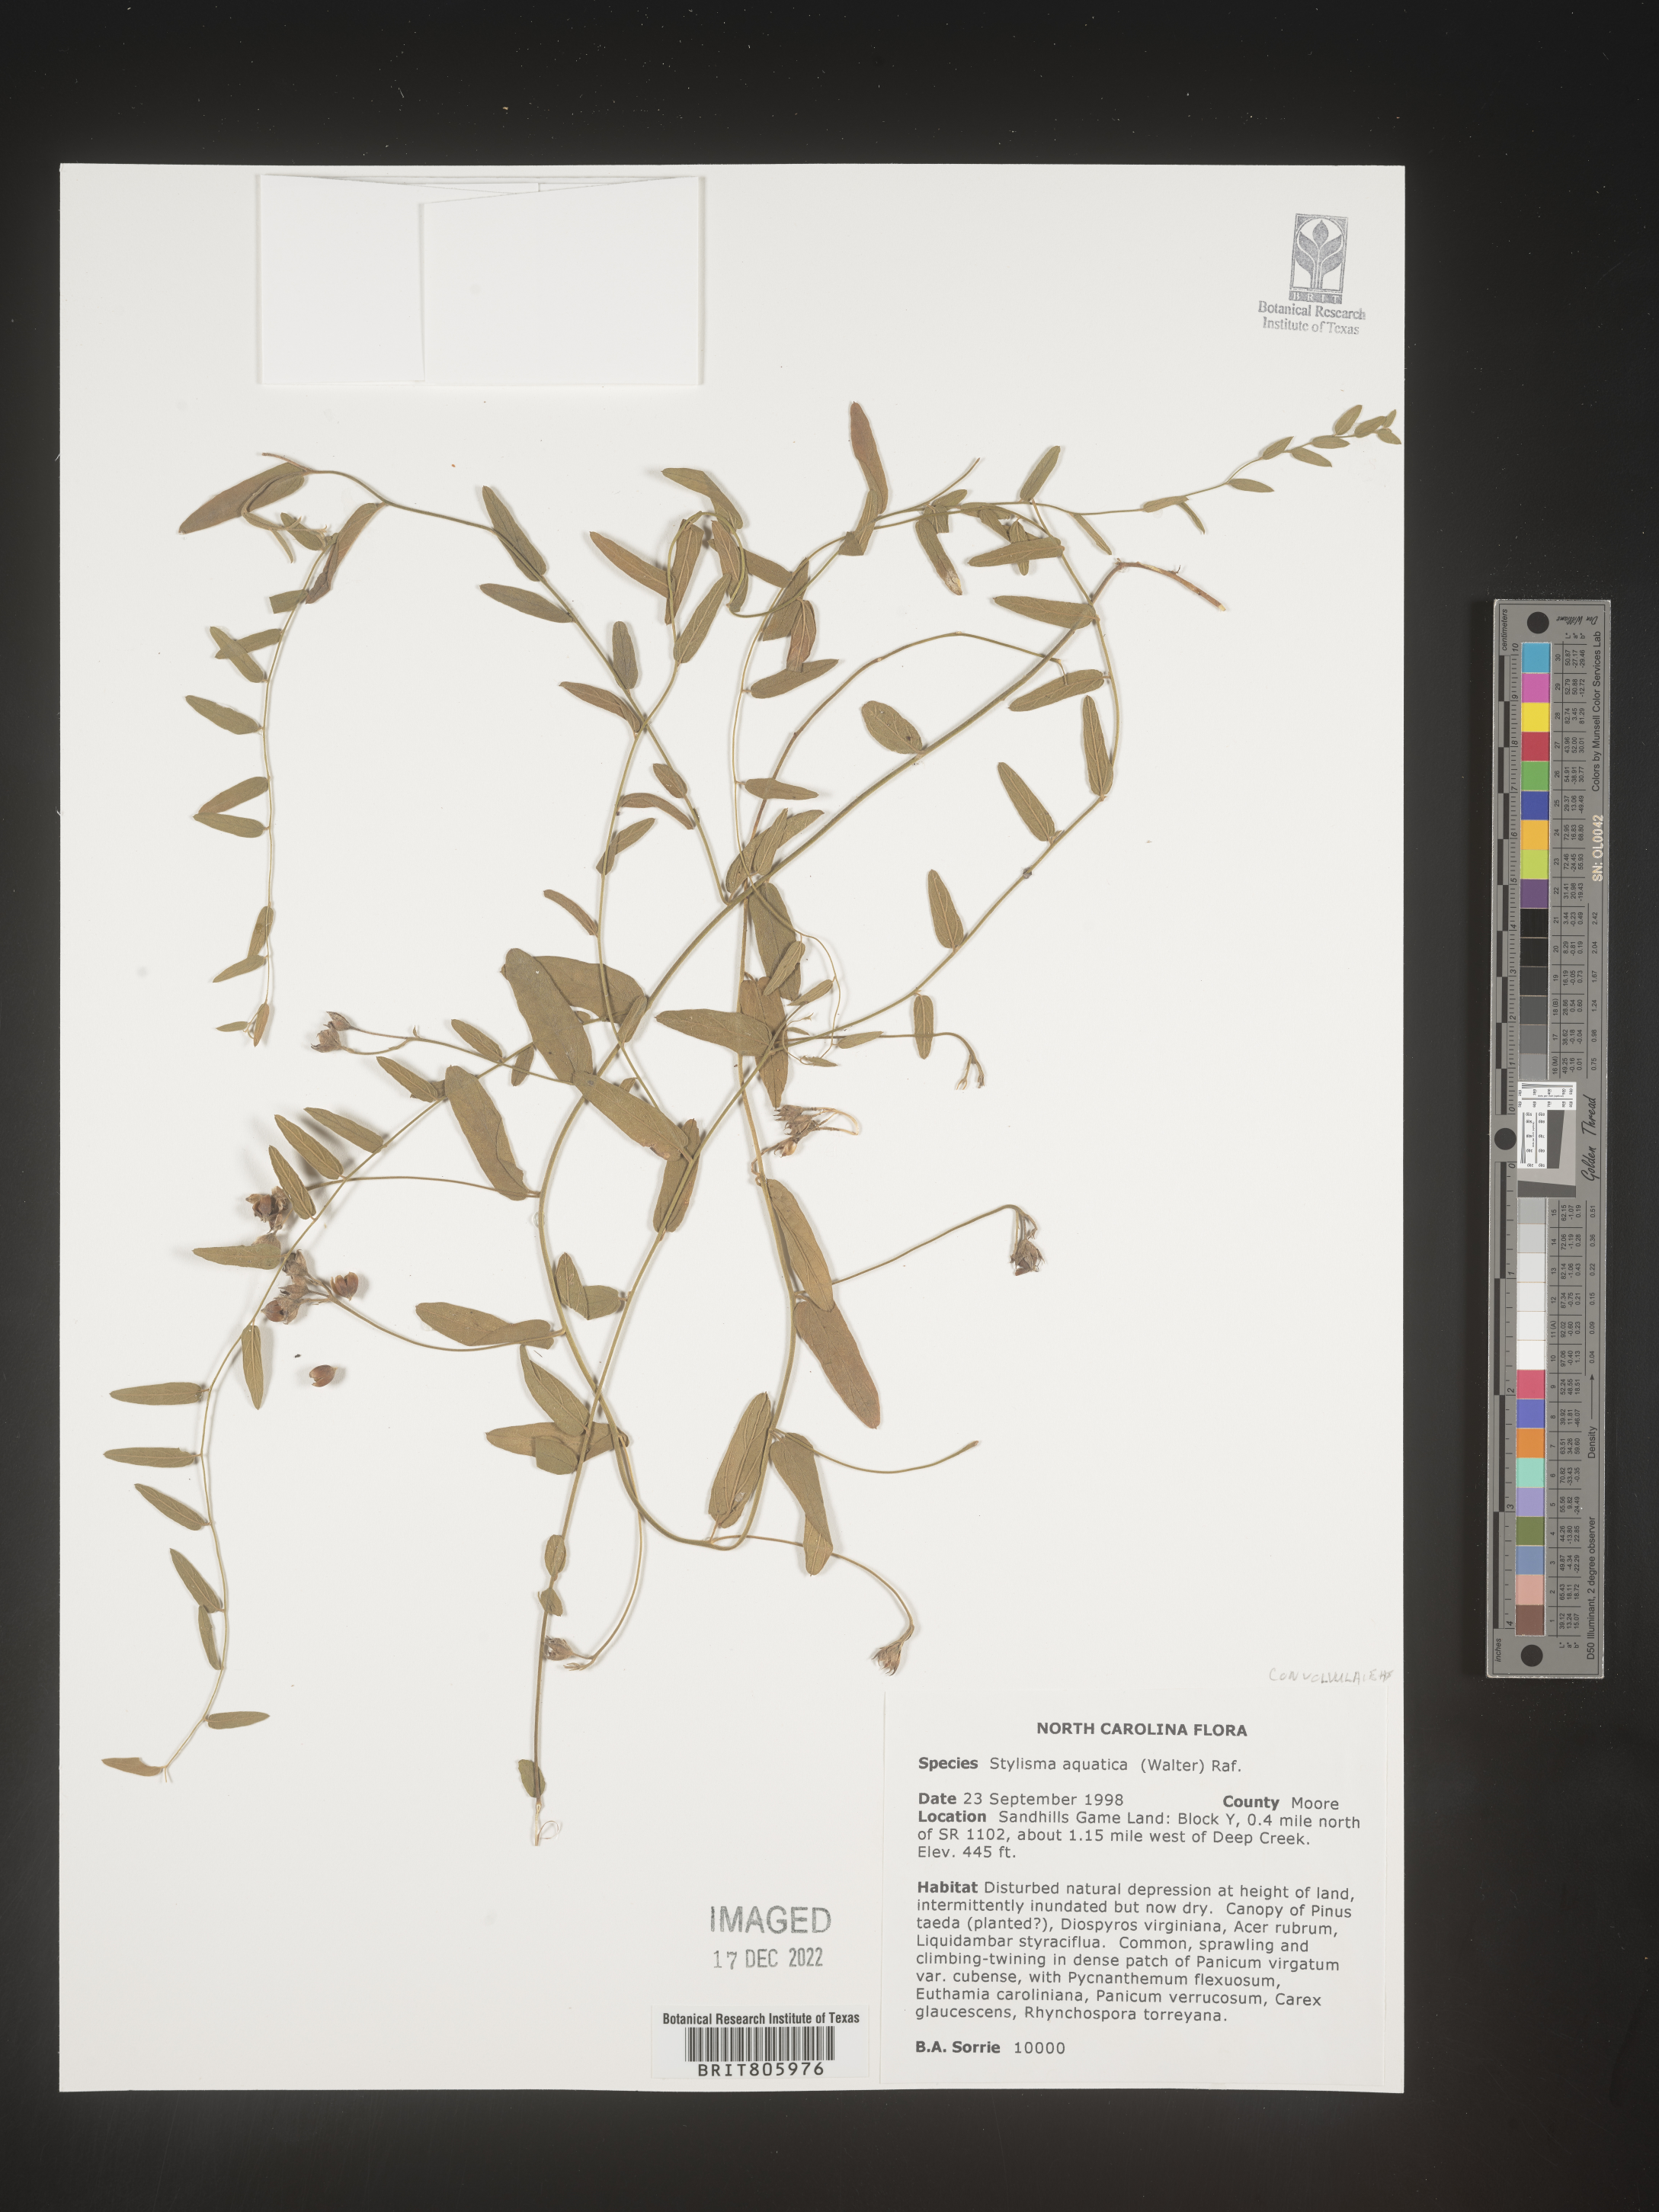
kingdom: Plantae
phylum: Tracheophyta
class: Magnoliopsida
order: Solanales
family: Convolvulaceae
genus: Stylisma
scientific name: Stylisma
